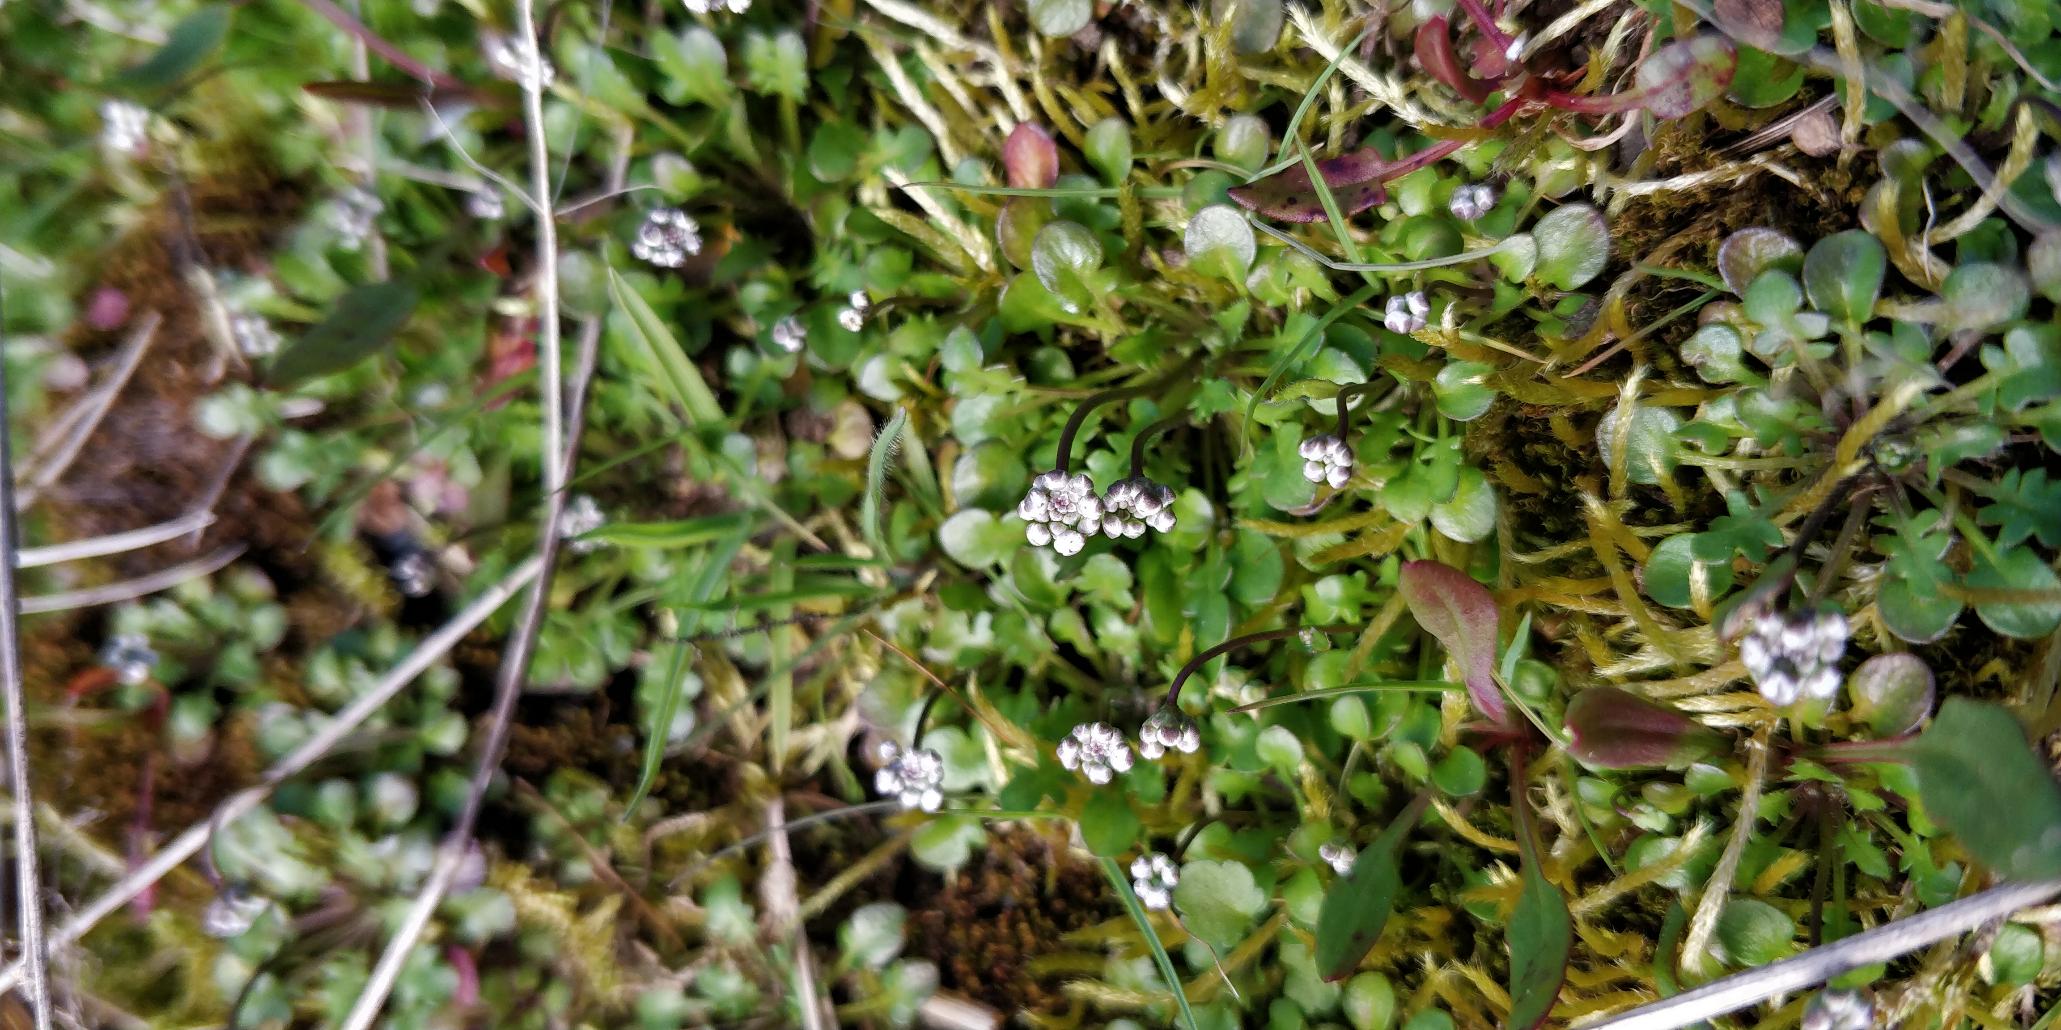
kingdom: Plantae
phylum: Tracheophyta
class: Magnoliopsida
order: Brassicales
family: Brassicaceae
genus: Cardamine
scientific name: Cardamine hirsuta
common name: Roset-springklap
